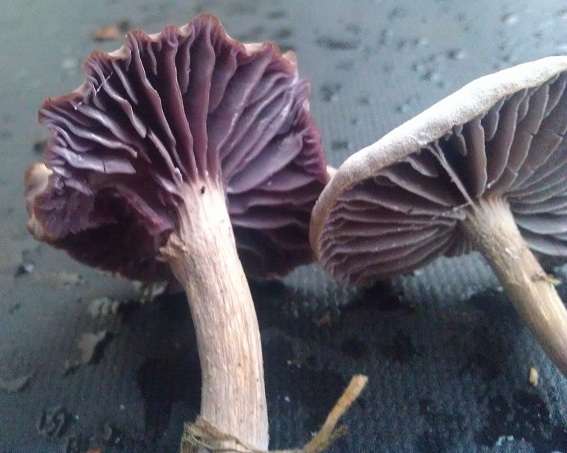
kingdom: Fungi
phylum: Basidiomycota
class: Agaricomycetes
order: Agaricales
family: Hydnangiaceae
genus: Laccaria
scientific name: Laccaria amethystina
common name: violet ametysthat
